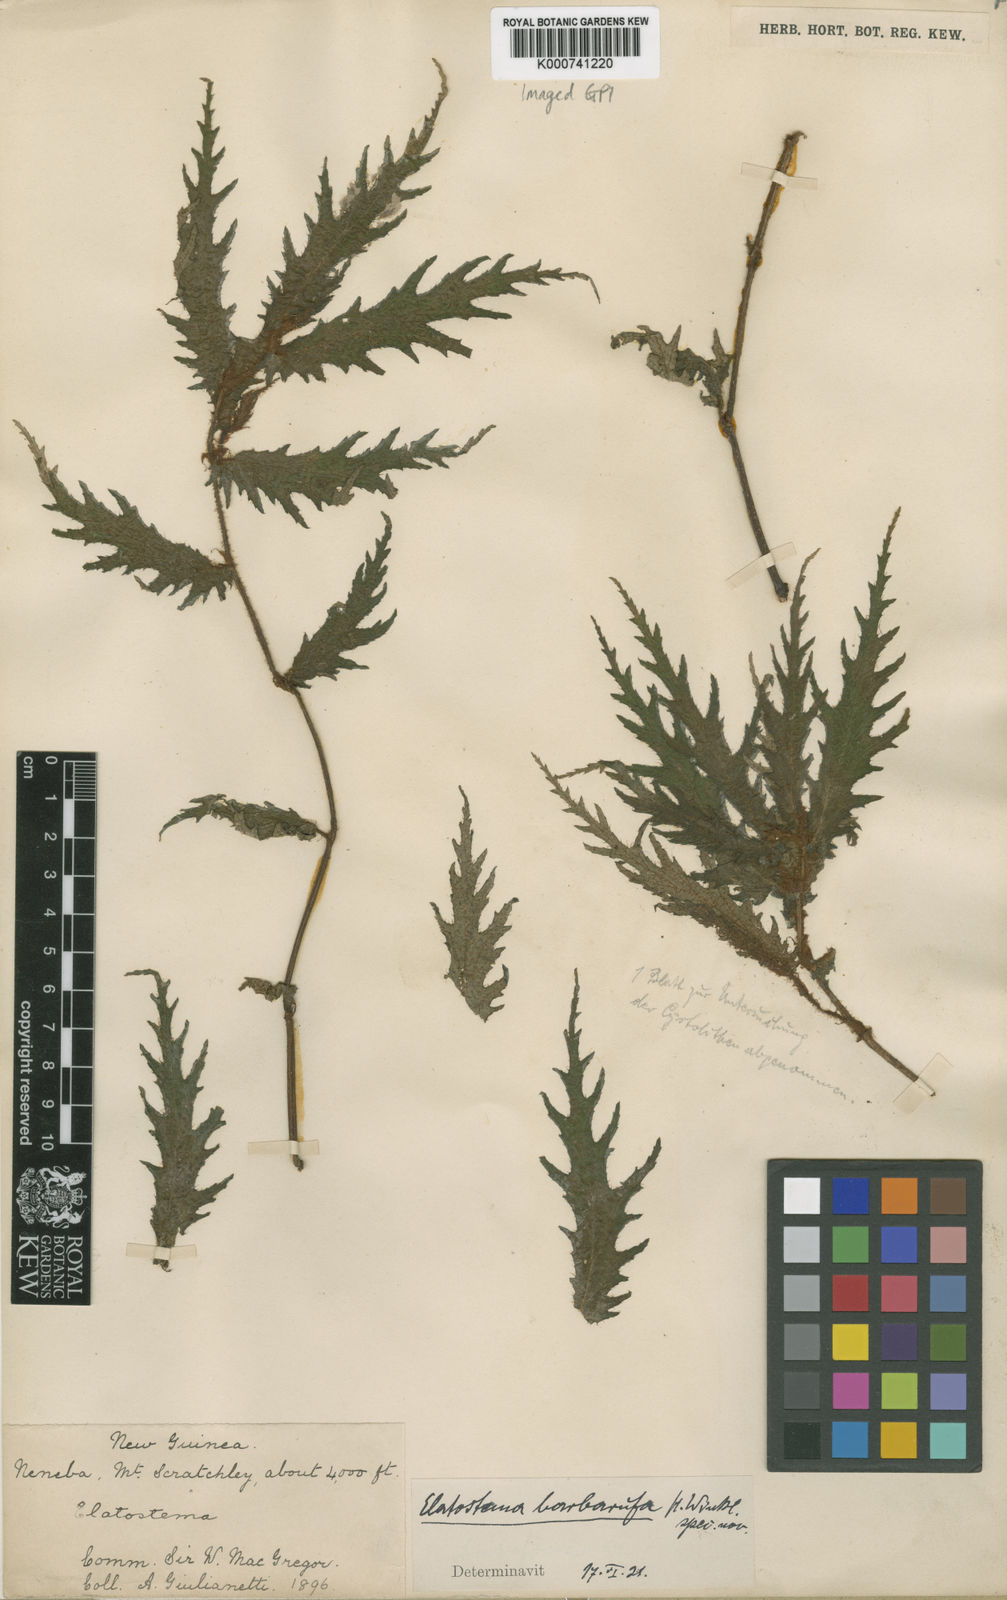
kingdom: Plantae
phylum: Tracheophyta
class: Magnoliopsida
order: Rosales
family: Urticaceae
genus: Elatostema
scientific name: Elatostema barbarufa
